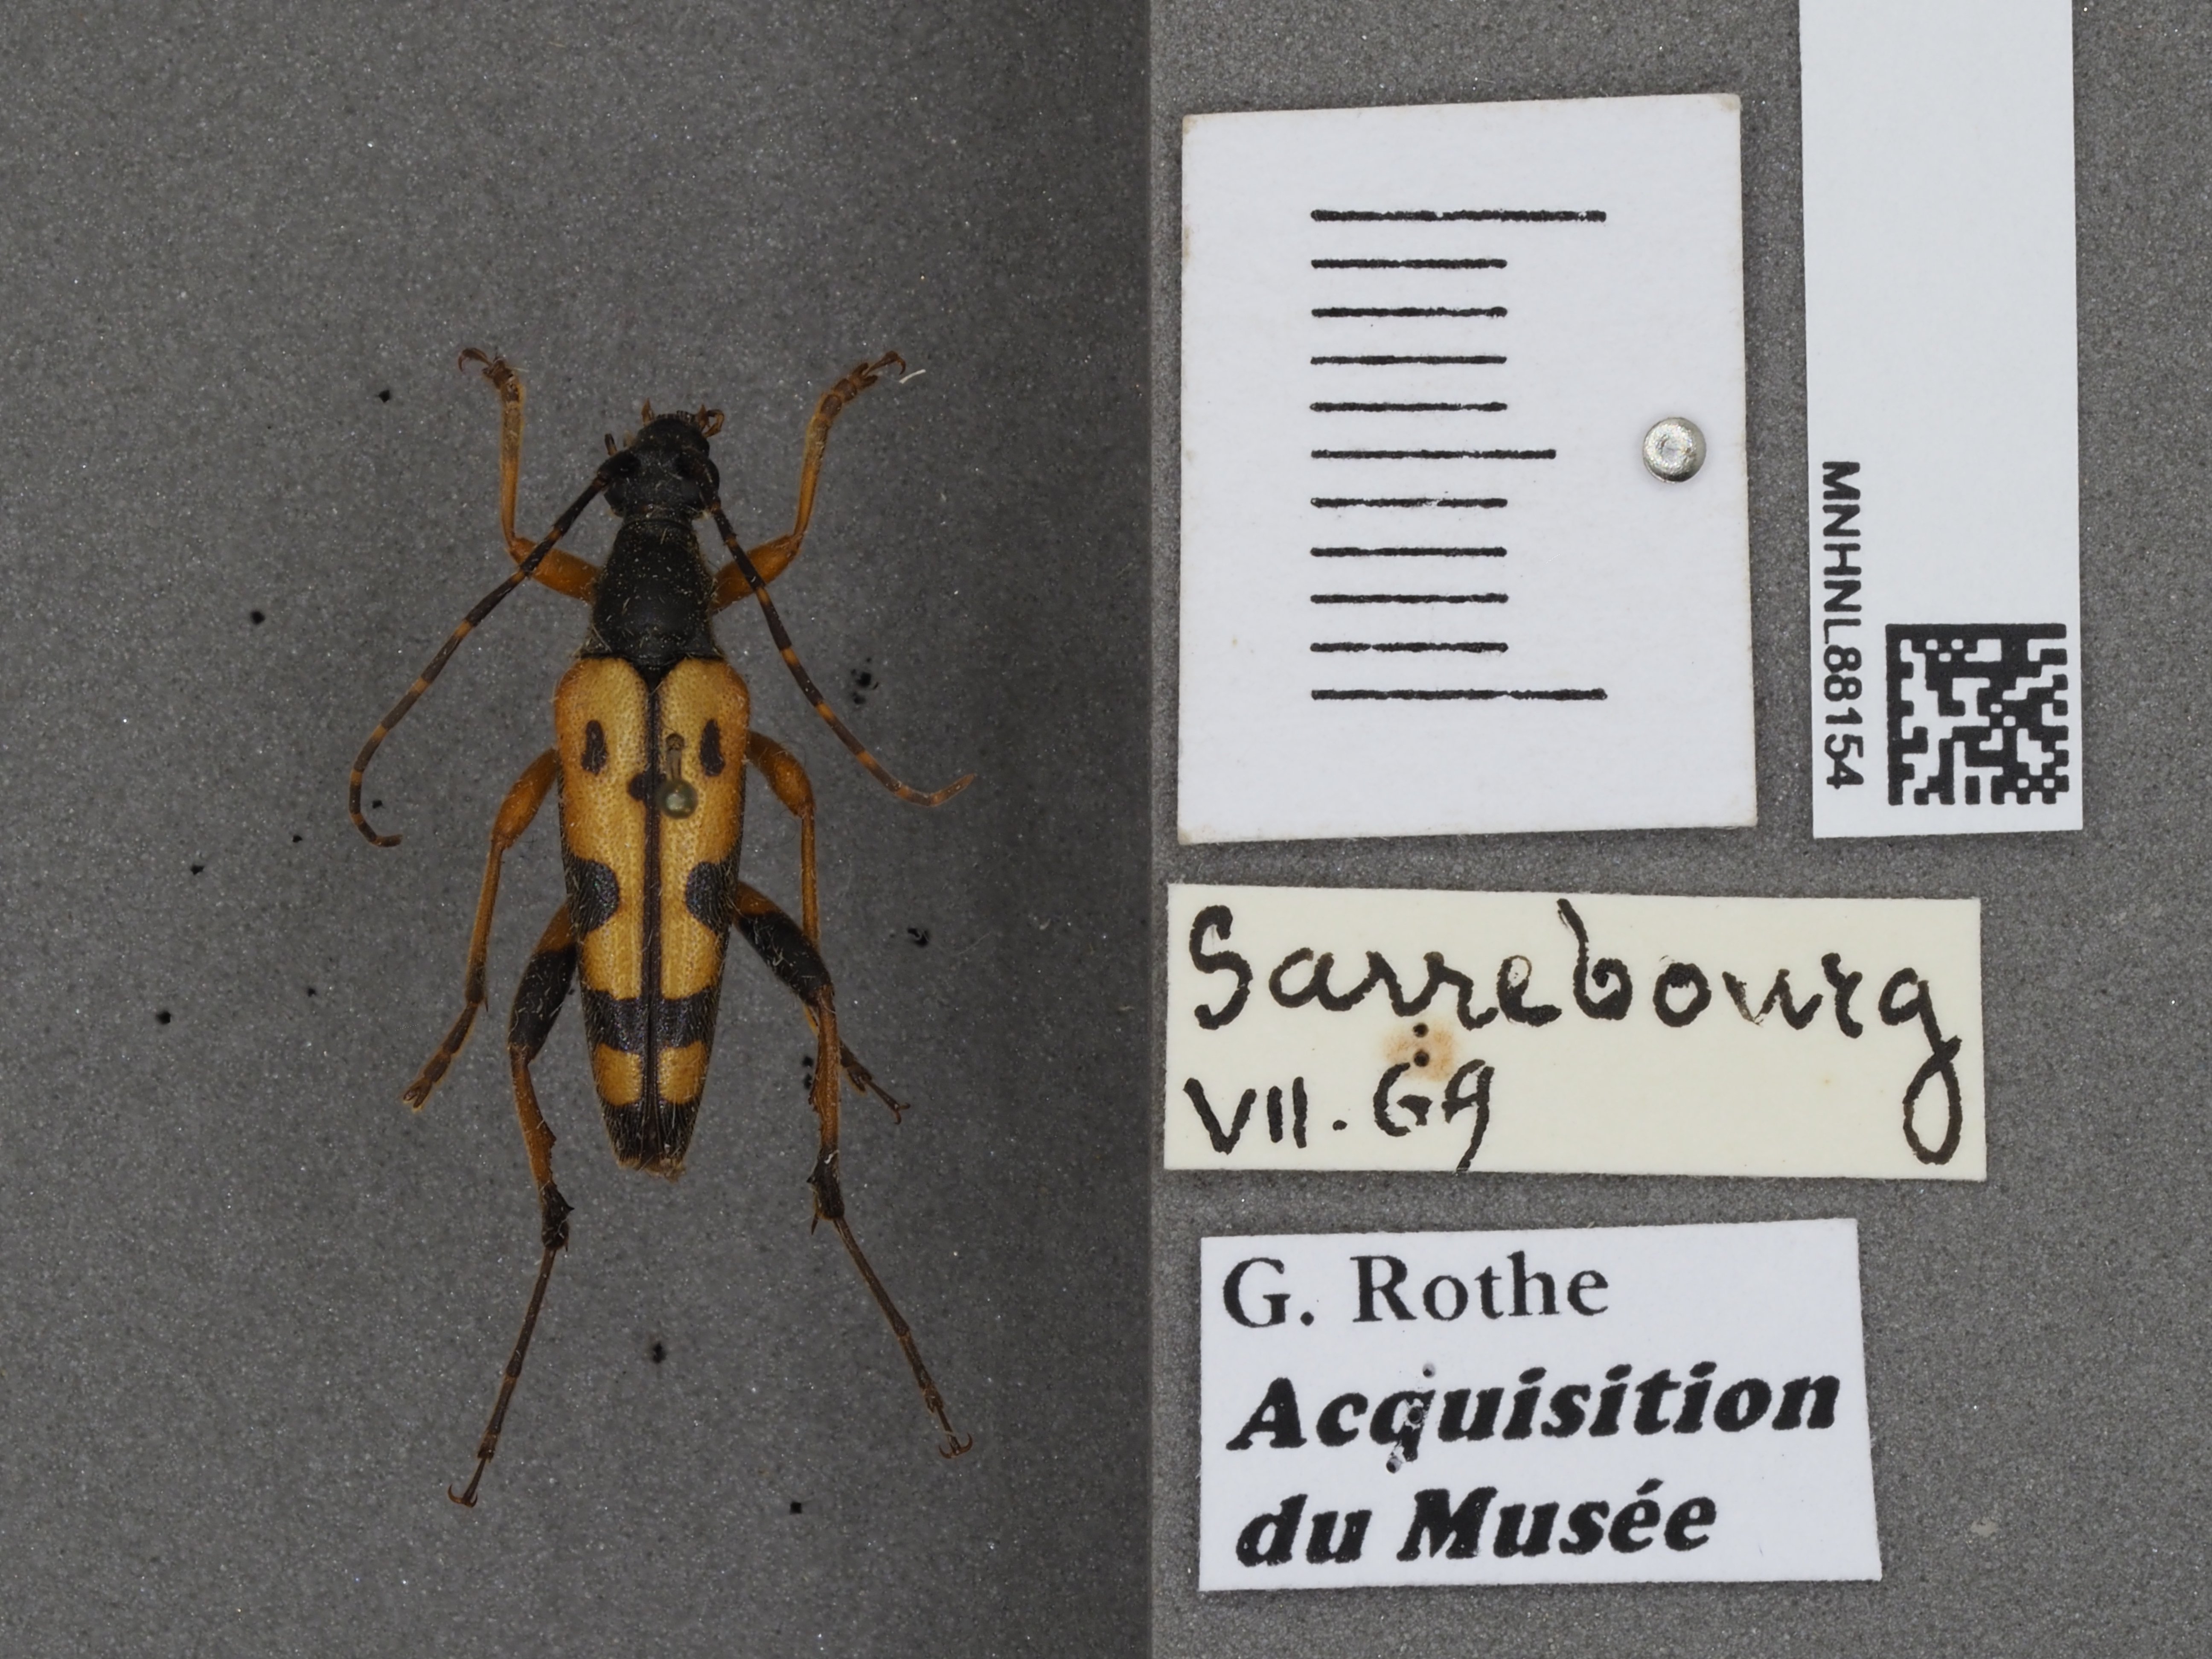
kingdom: Animalia
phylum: Arthropoda
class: Insecta
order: Coleoptera
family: Cerambycidae
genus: Rutpela
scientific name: Rutpela maculata
